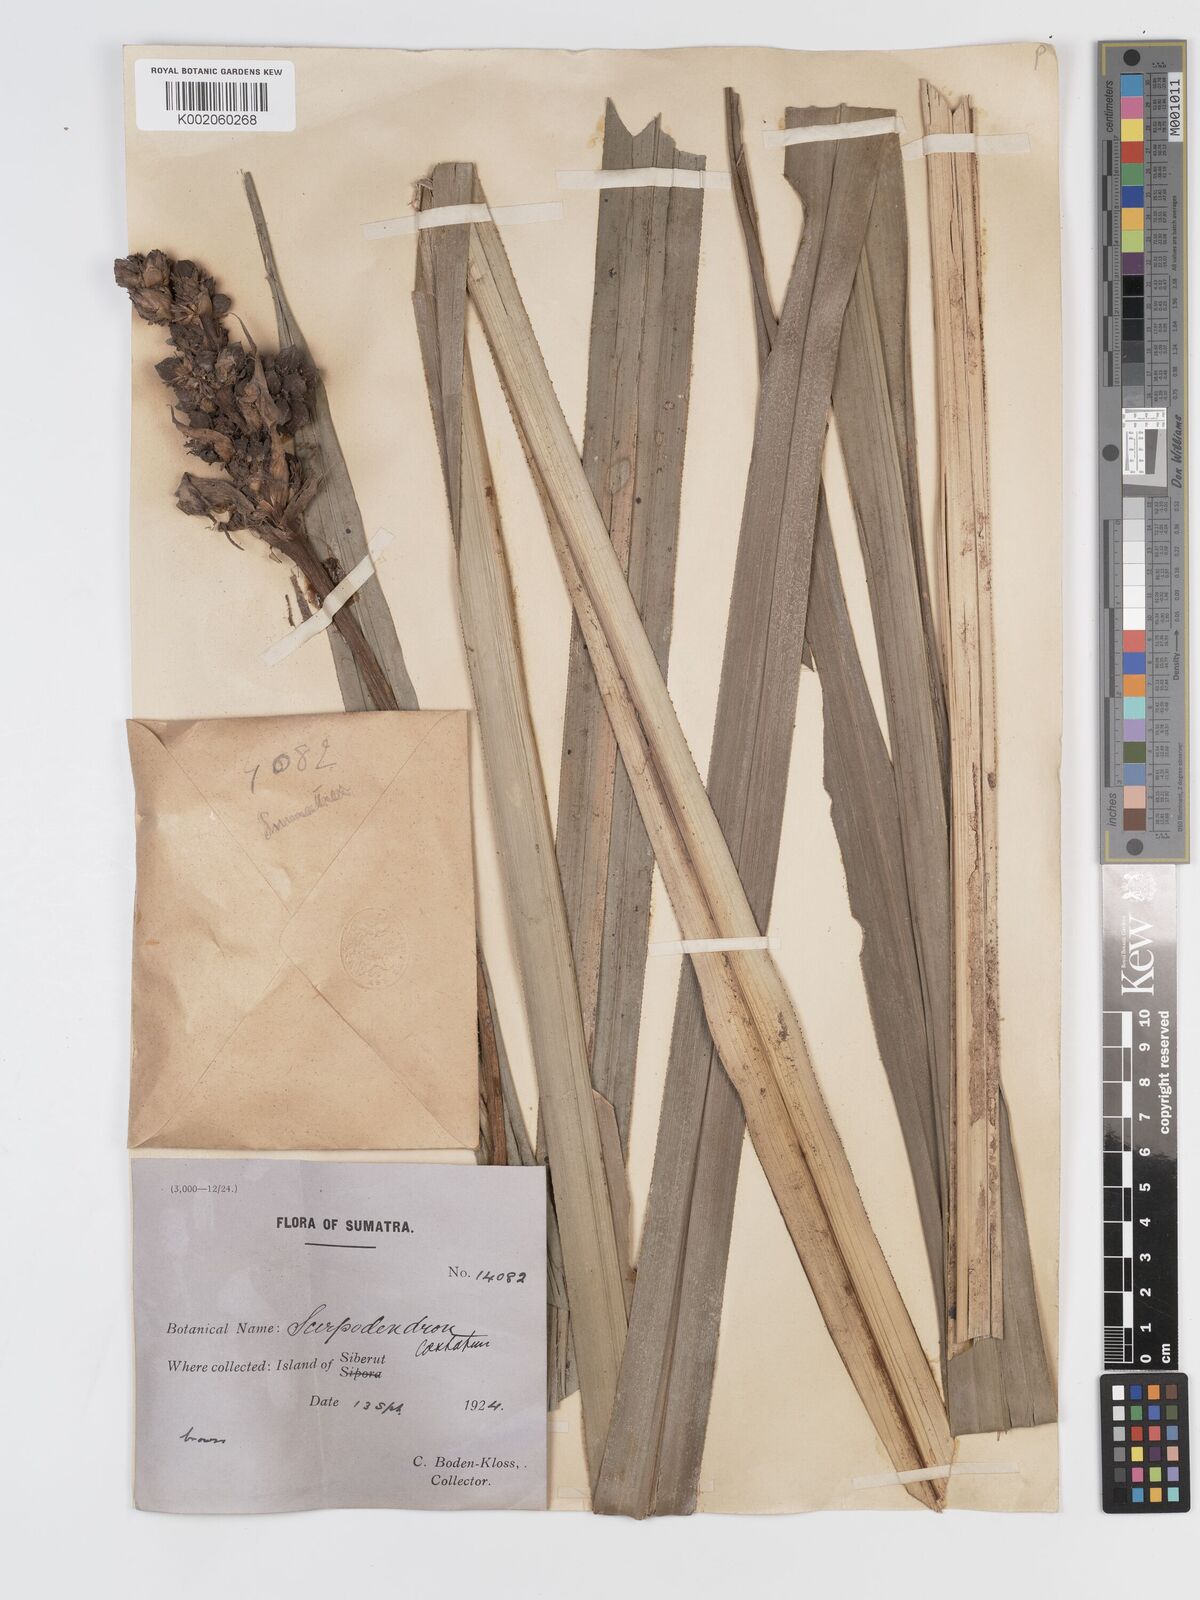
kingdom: Plantae
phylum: Tracheophyta
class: Liliopsida
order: Poales
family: Cyperaceae
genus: Scirpodendron
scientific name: Scirpodendron ghaeri
